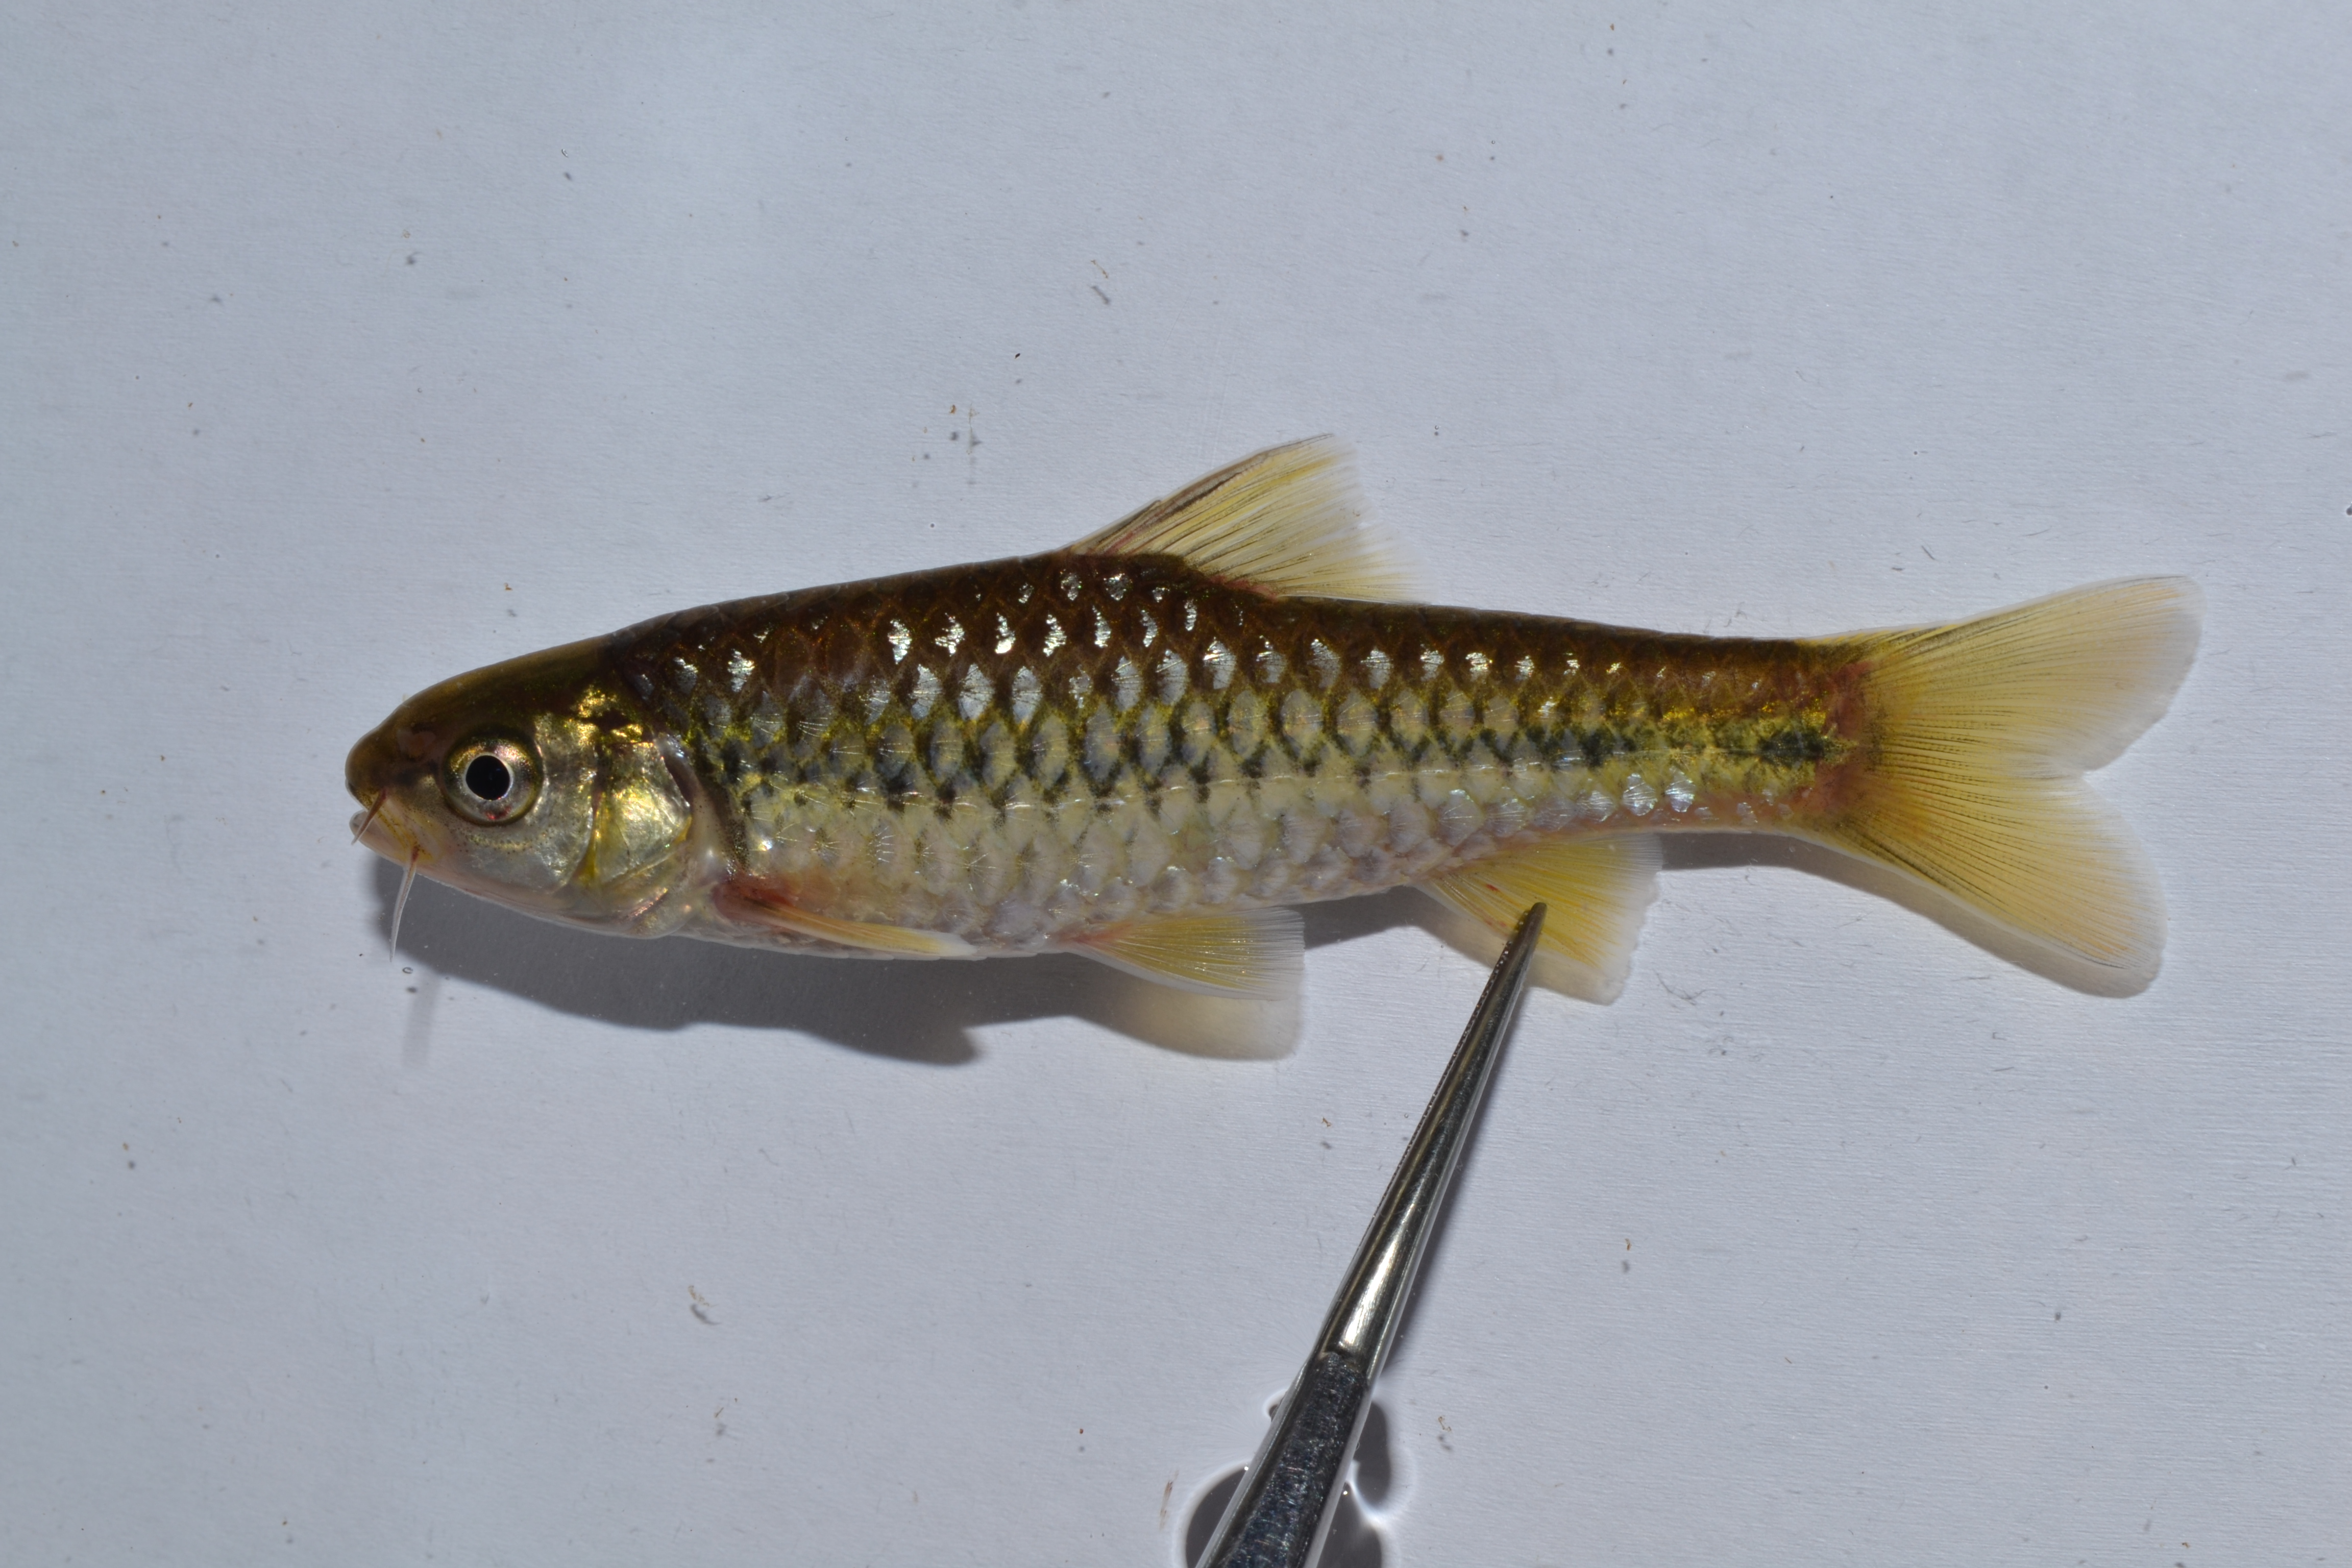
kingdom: Animalia
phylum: Chordata
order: Cypriniformes
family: Cyprinidae
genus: Enteromius
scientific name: Enteromius eutaenia
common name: Orangefin barb
